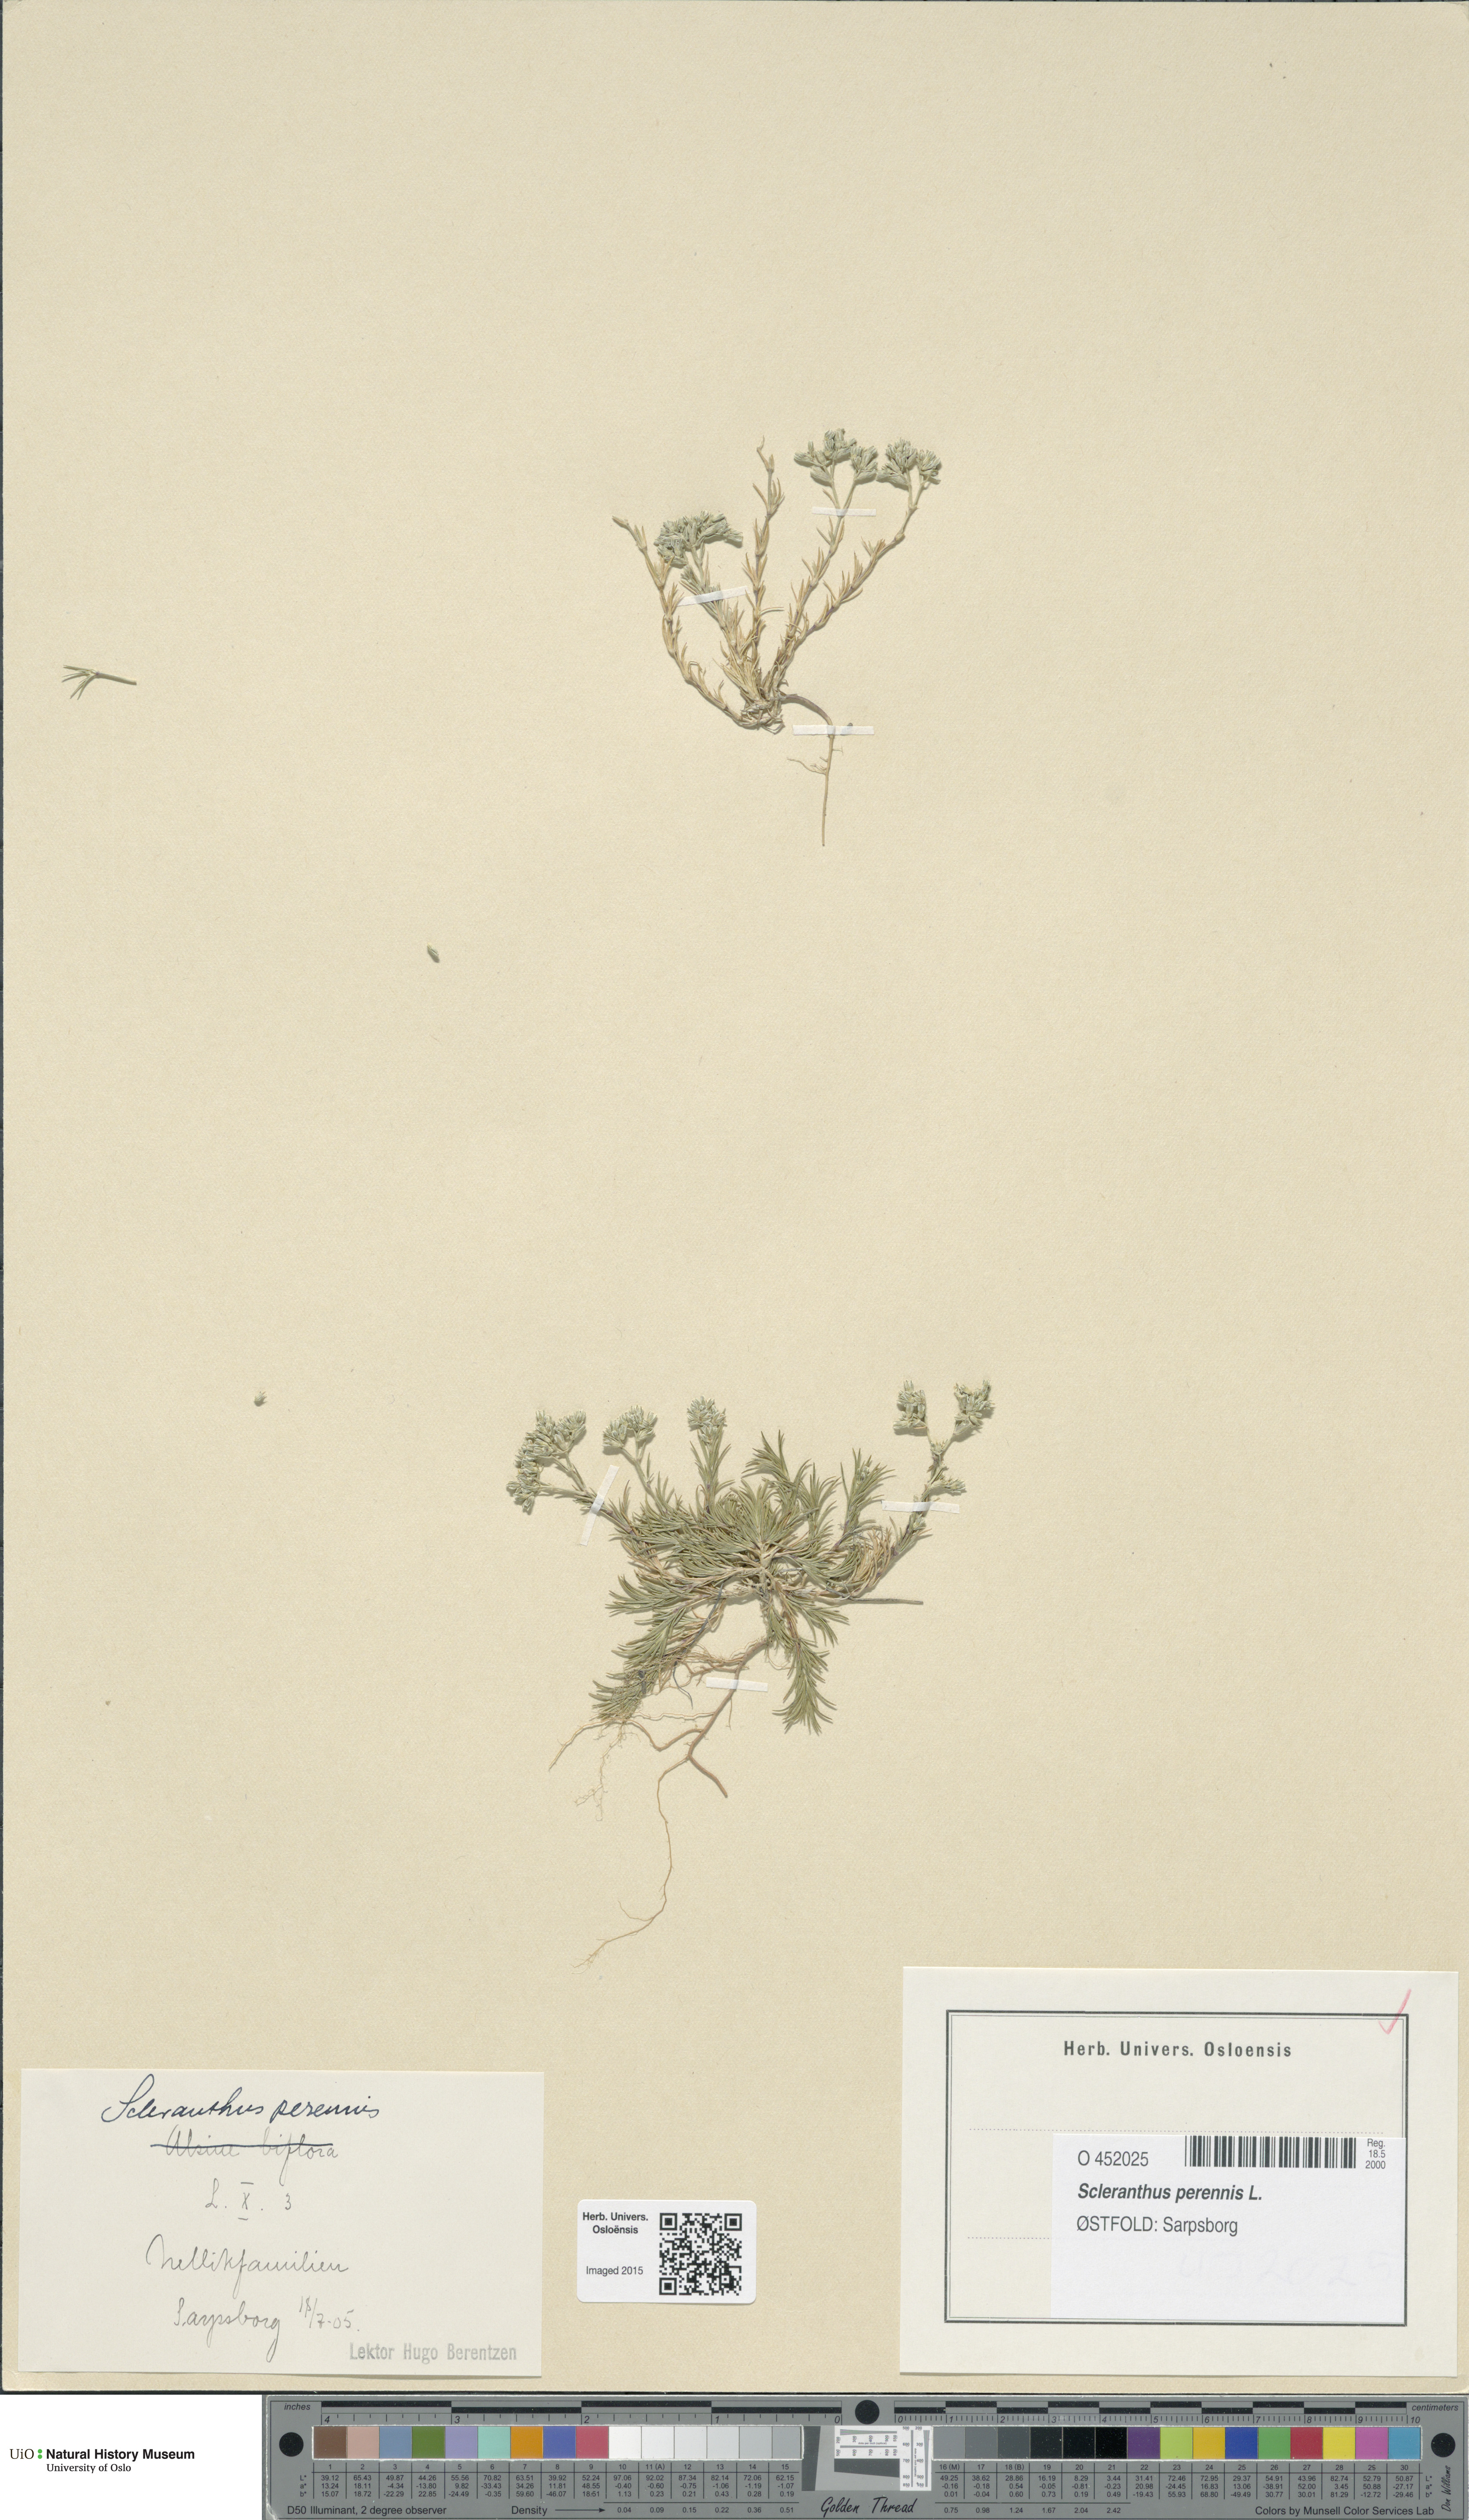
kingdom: Plantae
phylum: Tracheophyta
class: Magnoliopsida
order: Caryophyllales
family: Caryophyllaceae
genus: Scleranthus
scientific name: Scleranthus perennis
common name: Perennial knawel
